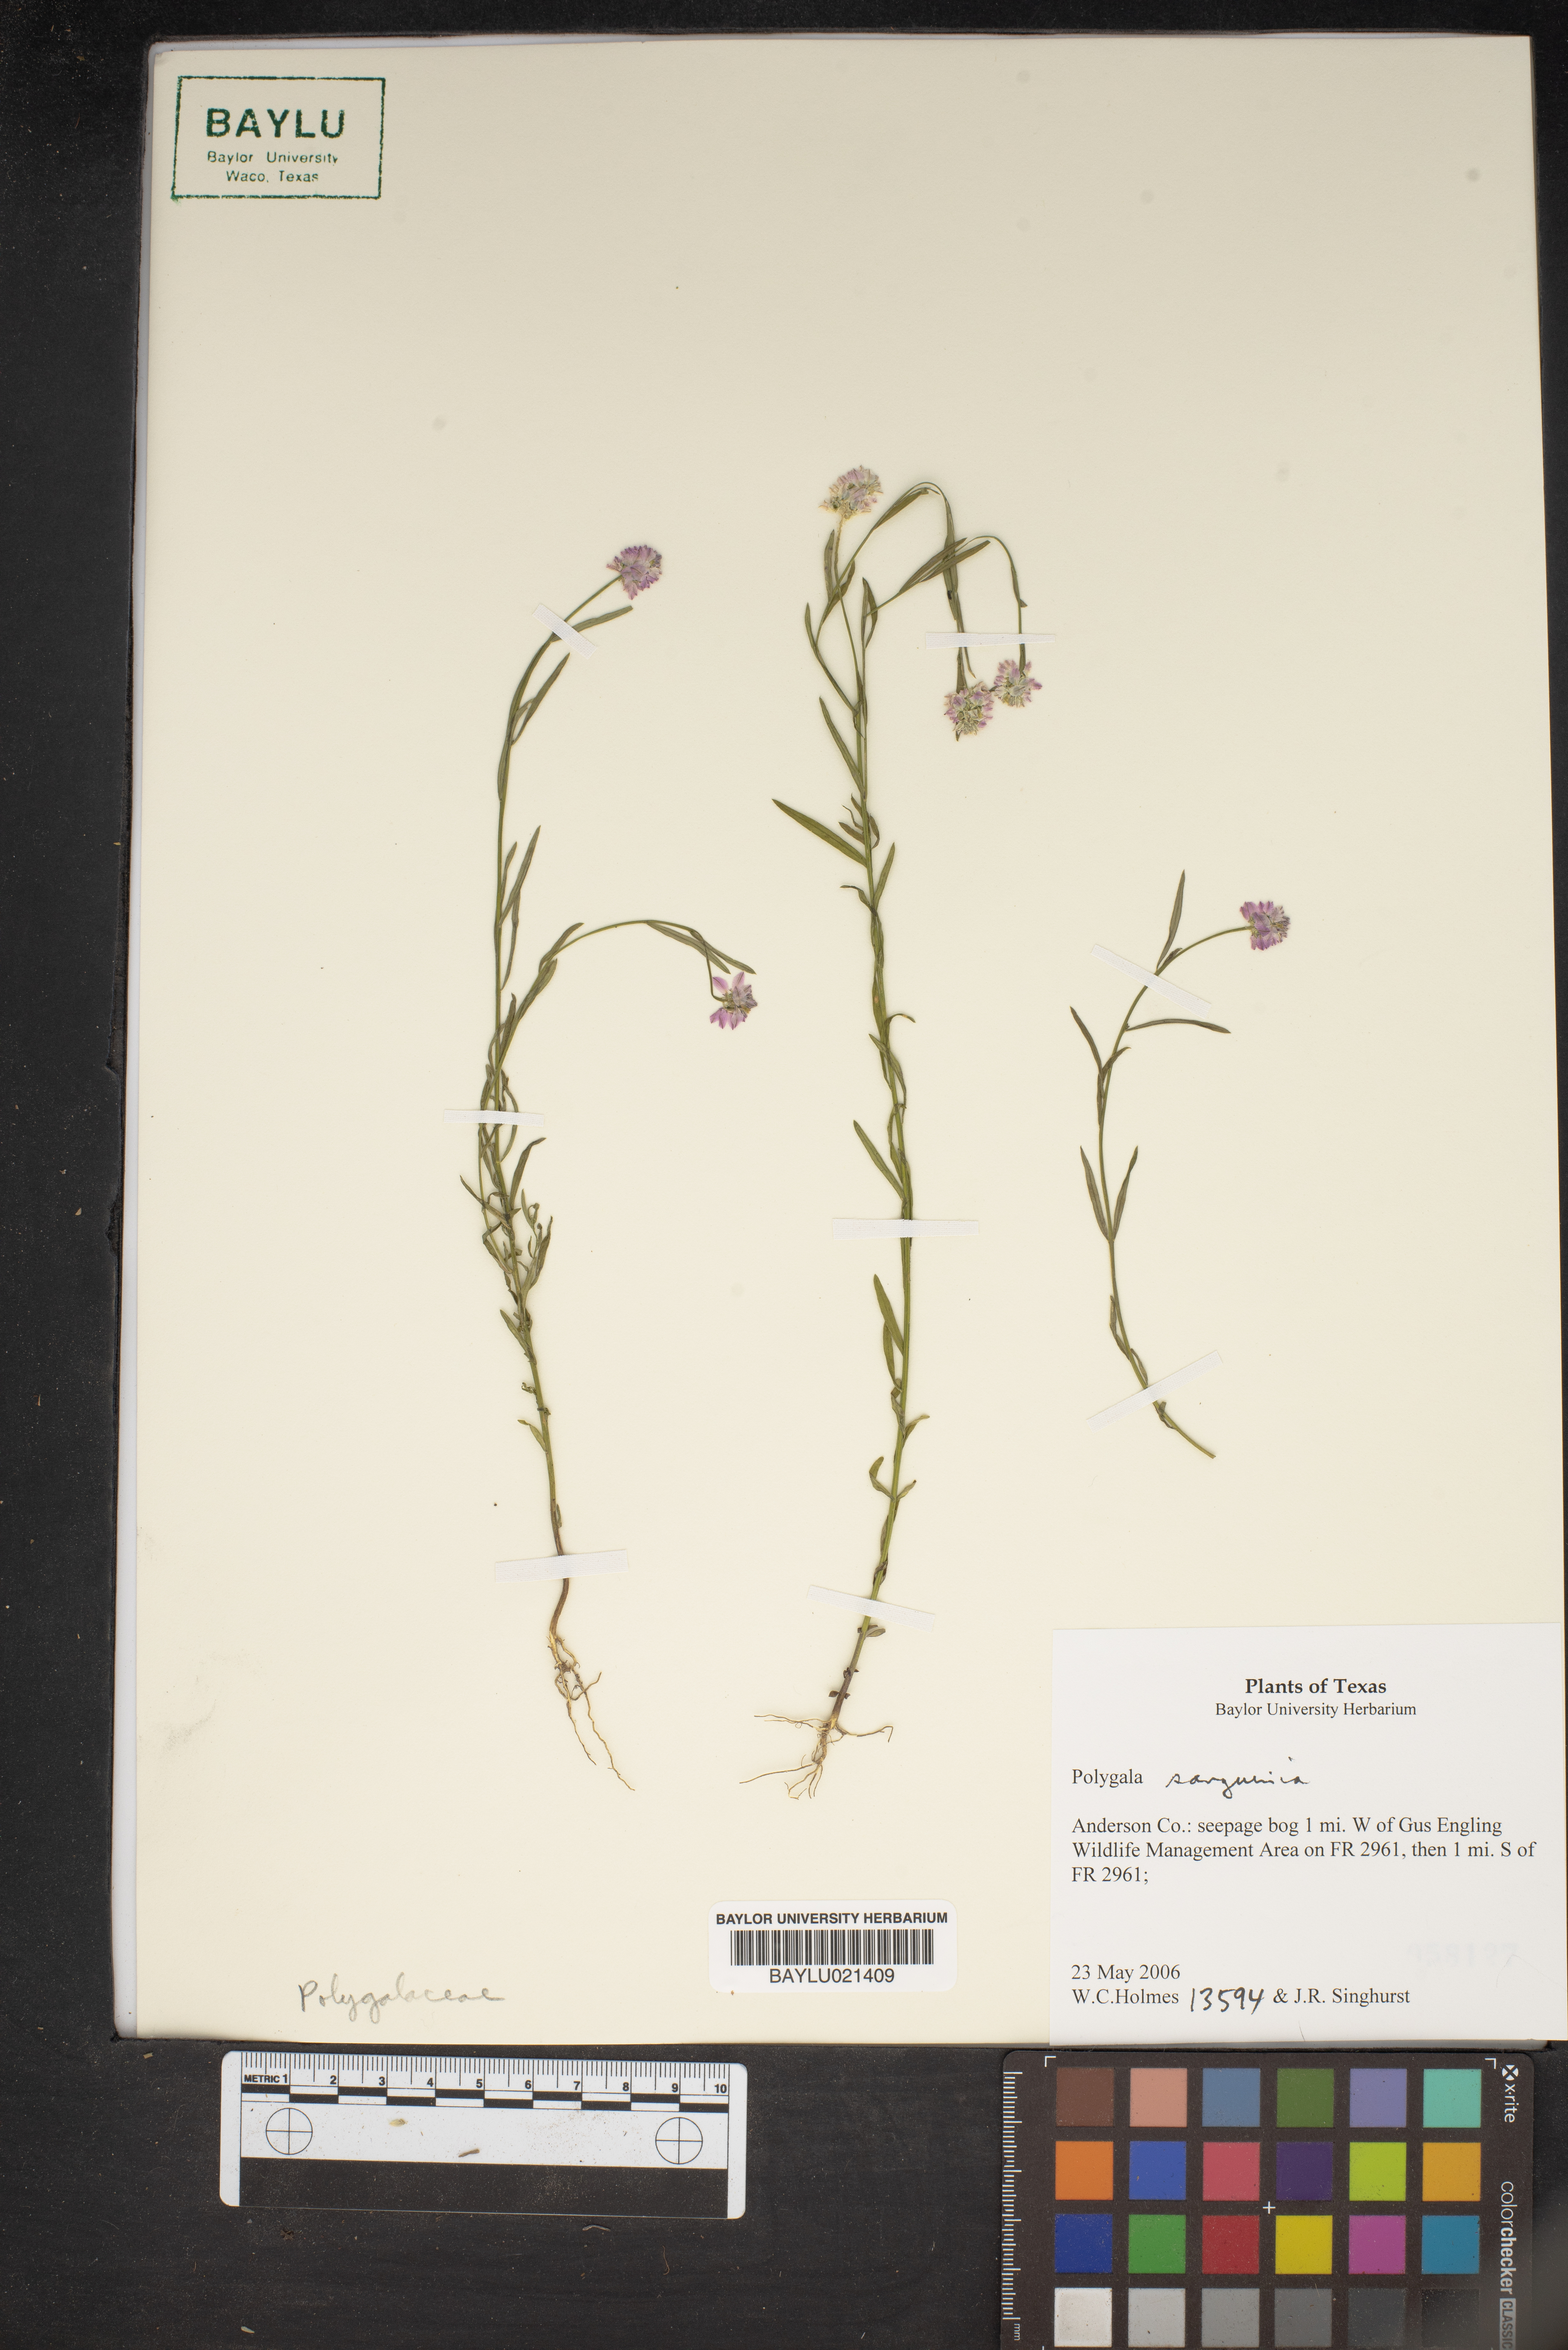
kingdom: Plantae
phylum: Tracheophyta
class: Magnoliopsida
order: Fabales
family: Polygalaceae
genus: Polygala
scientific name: Polygala sanguinea
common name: Blood milkwort
